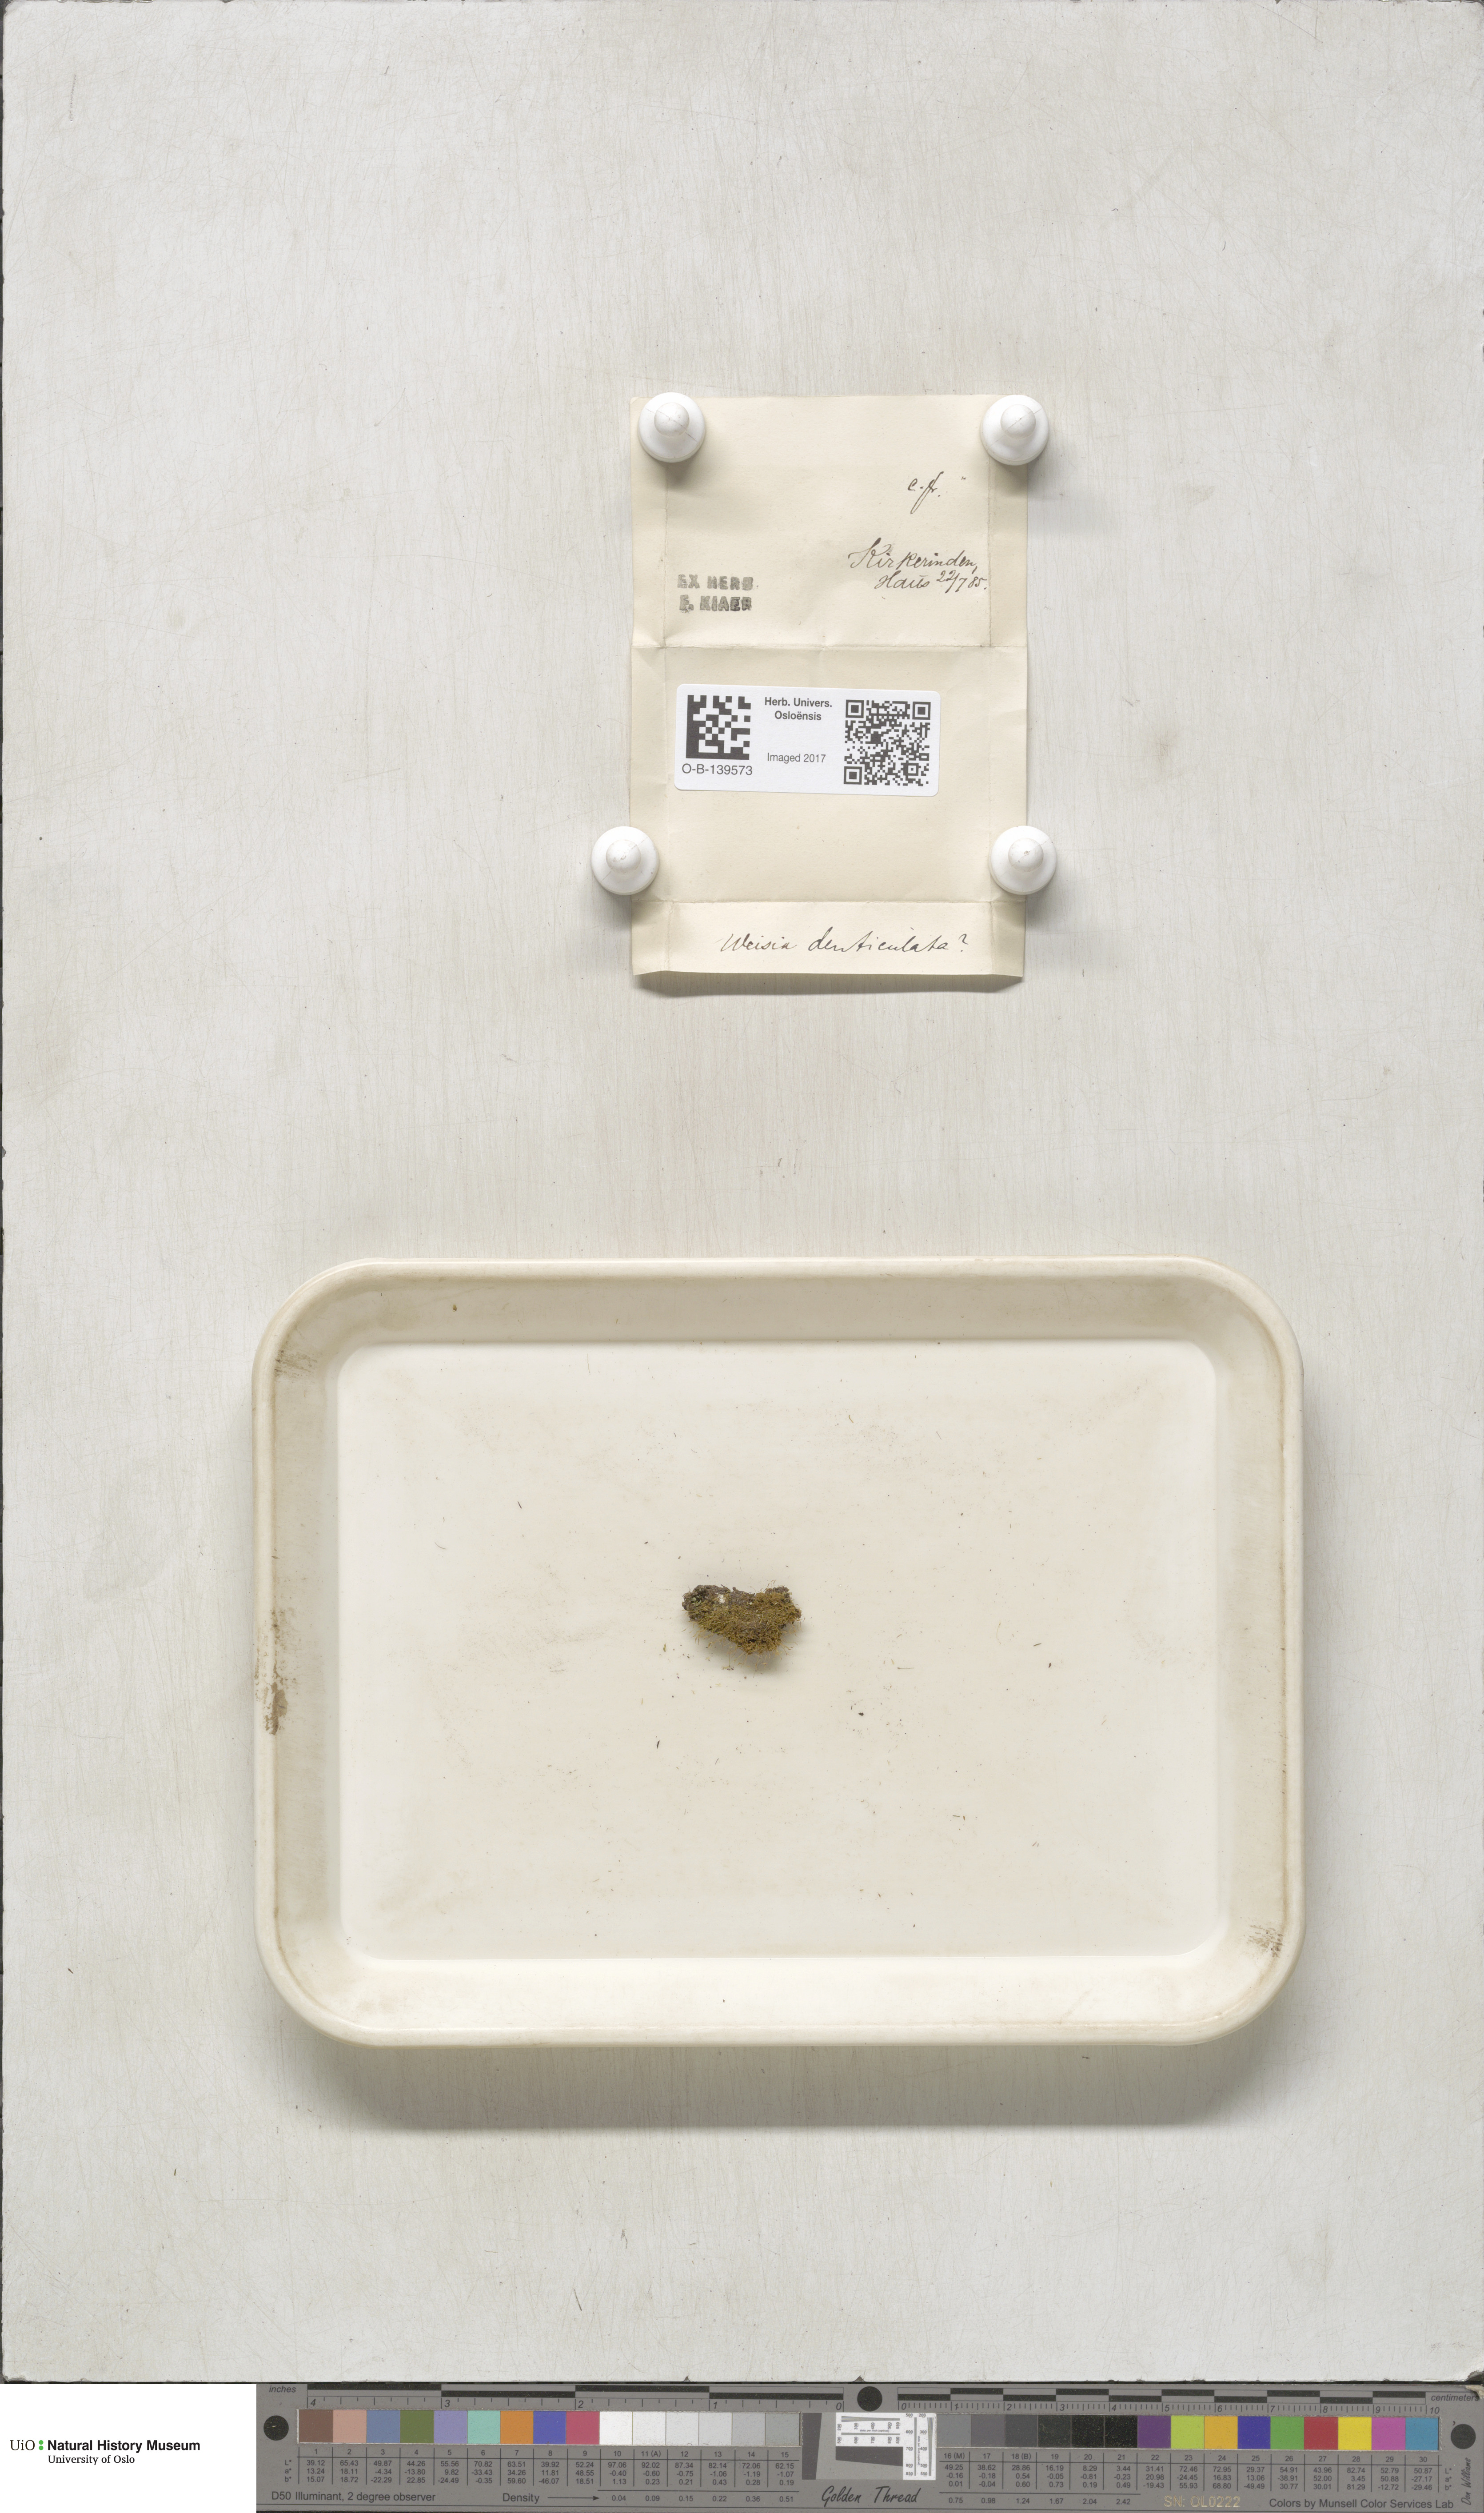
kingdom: Plantae
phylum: Bryophyta
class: Bryopsida
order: Dicranales
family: Rhabdoweisiaceae
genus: Rhabdoweisia
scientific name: Rhabdoweisia crispata
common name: Fine-toothed streak moss
